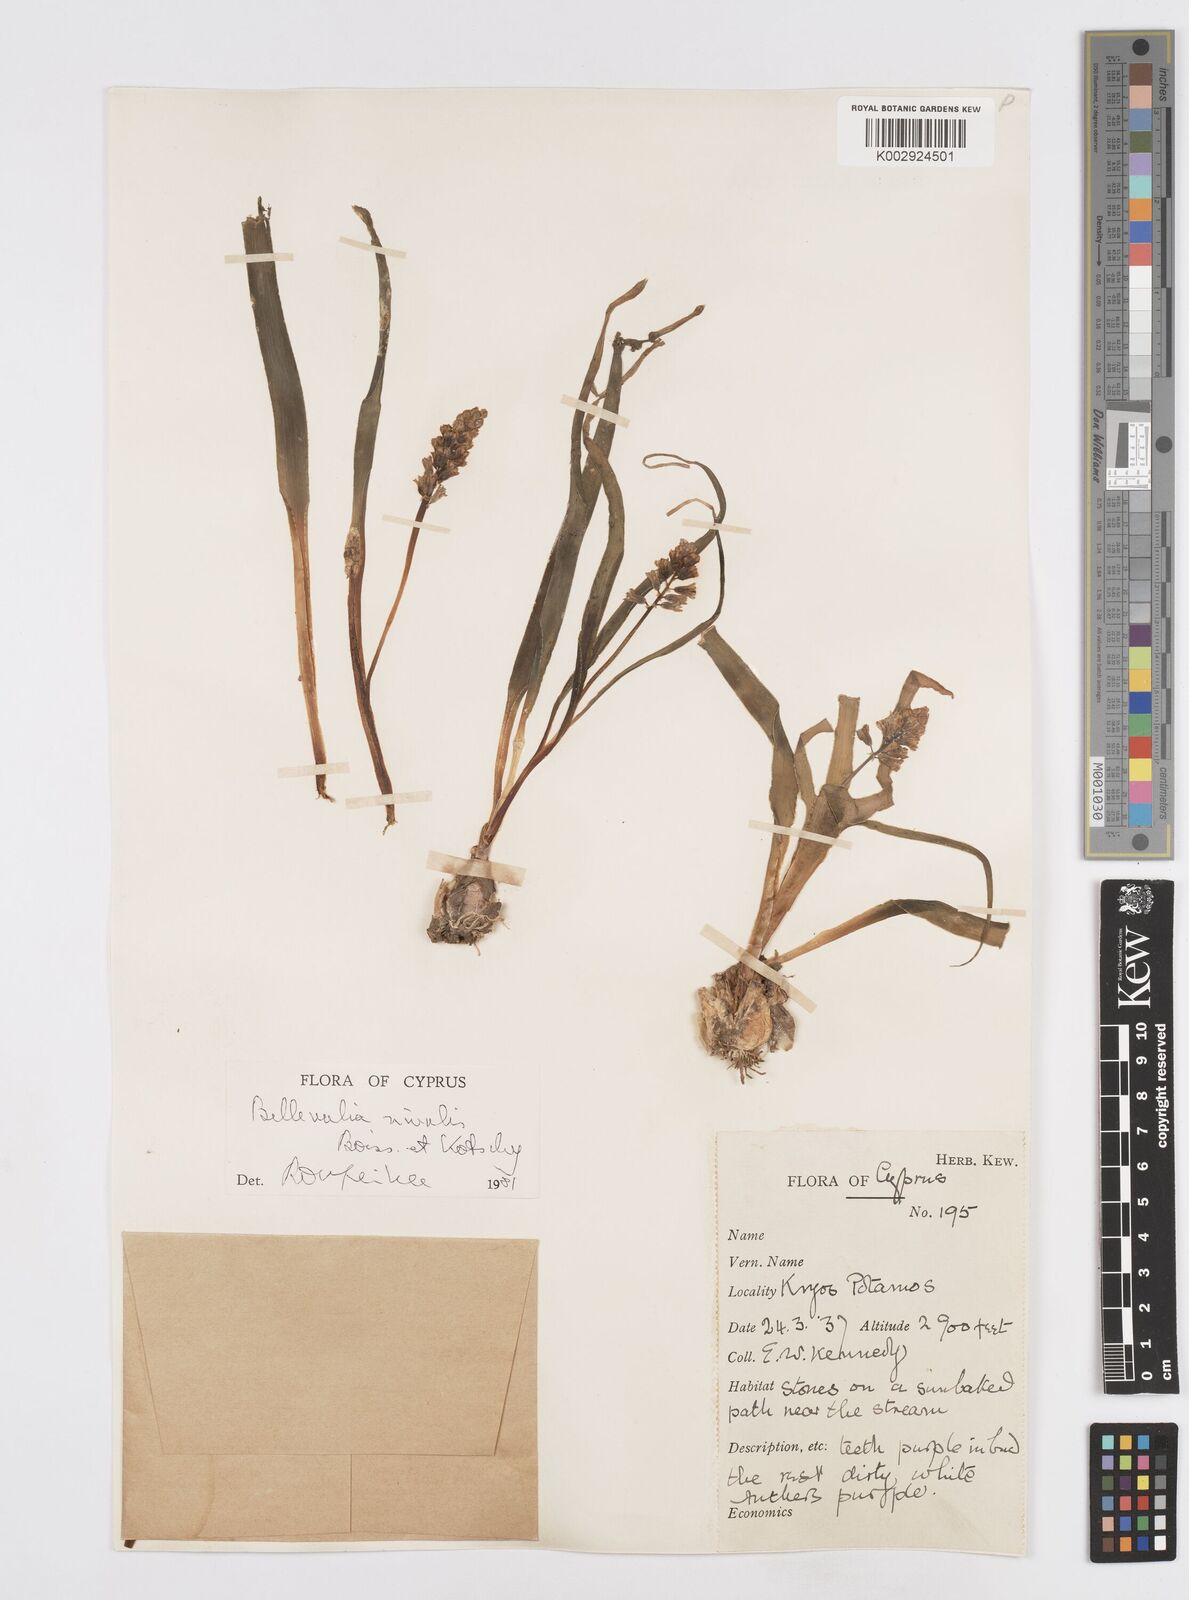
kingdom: Plantae
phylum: Tracheophyta
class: Liliopsida
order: Asparagales
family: Asparagaceae
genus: Bellevalia
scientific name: Bellevalia nivalis
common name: Snow bellevalia
